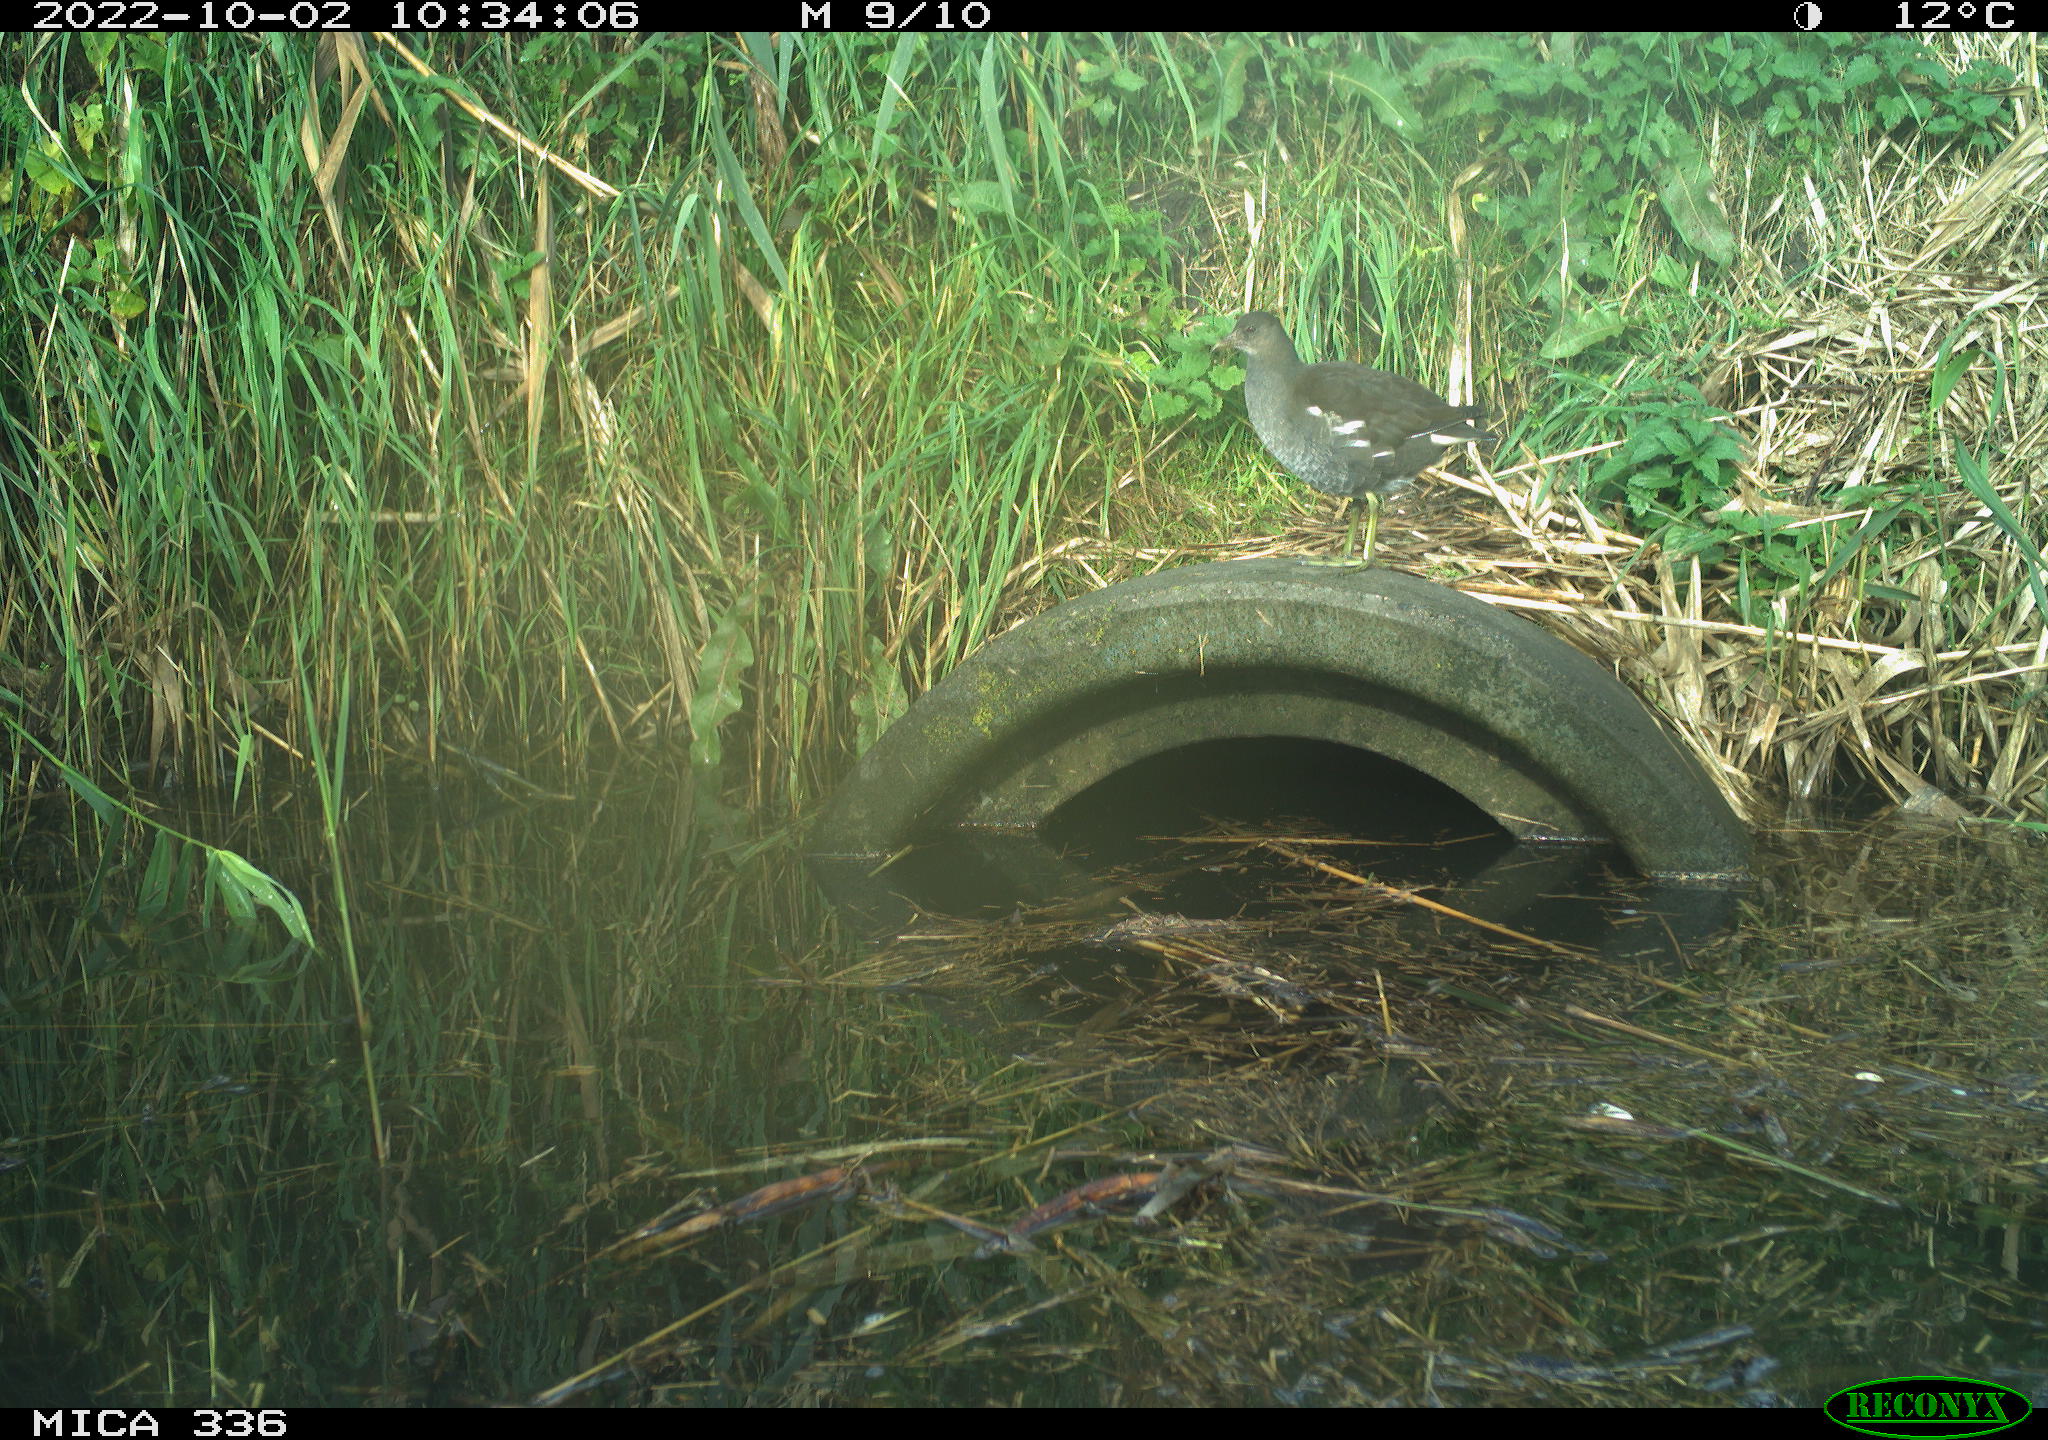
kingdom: Animalia
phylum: Chordata
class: Aves
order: Gruiformes
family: Rallidae
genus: Gallinula
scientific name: Gallinula chloropus
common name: Common moorhen
